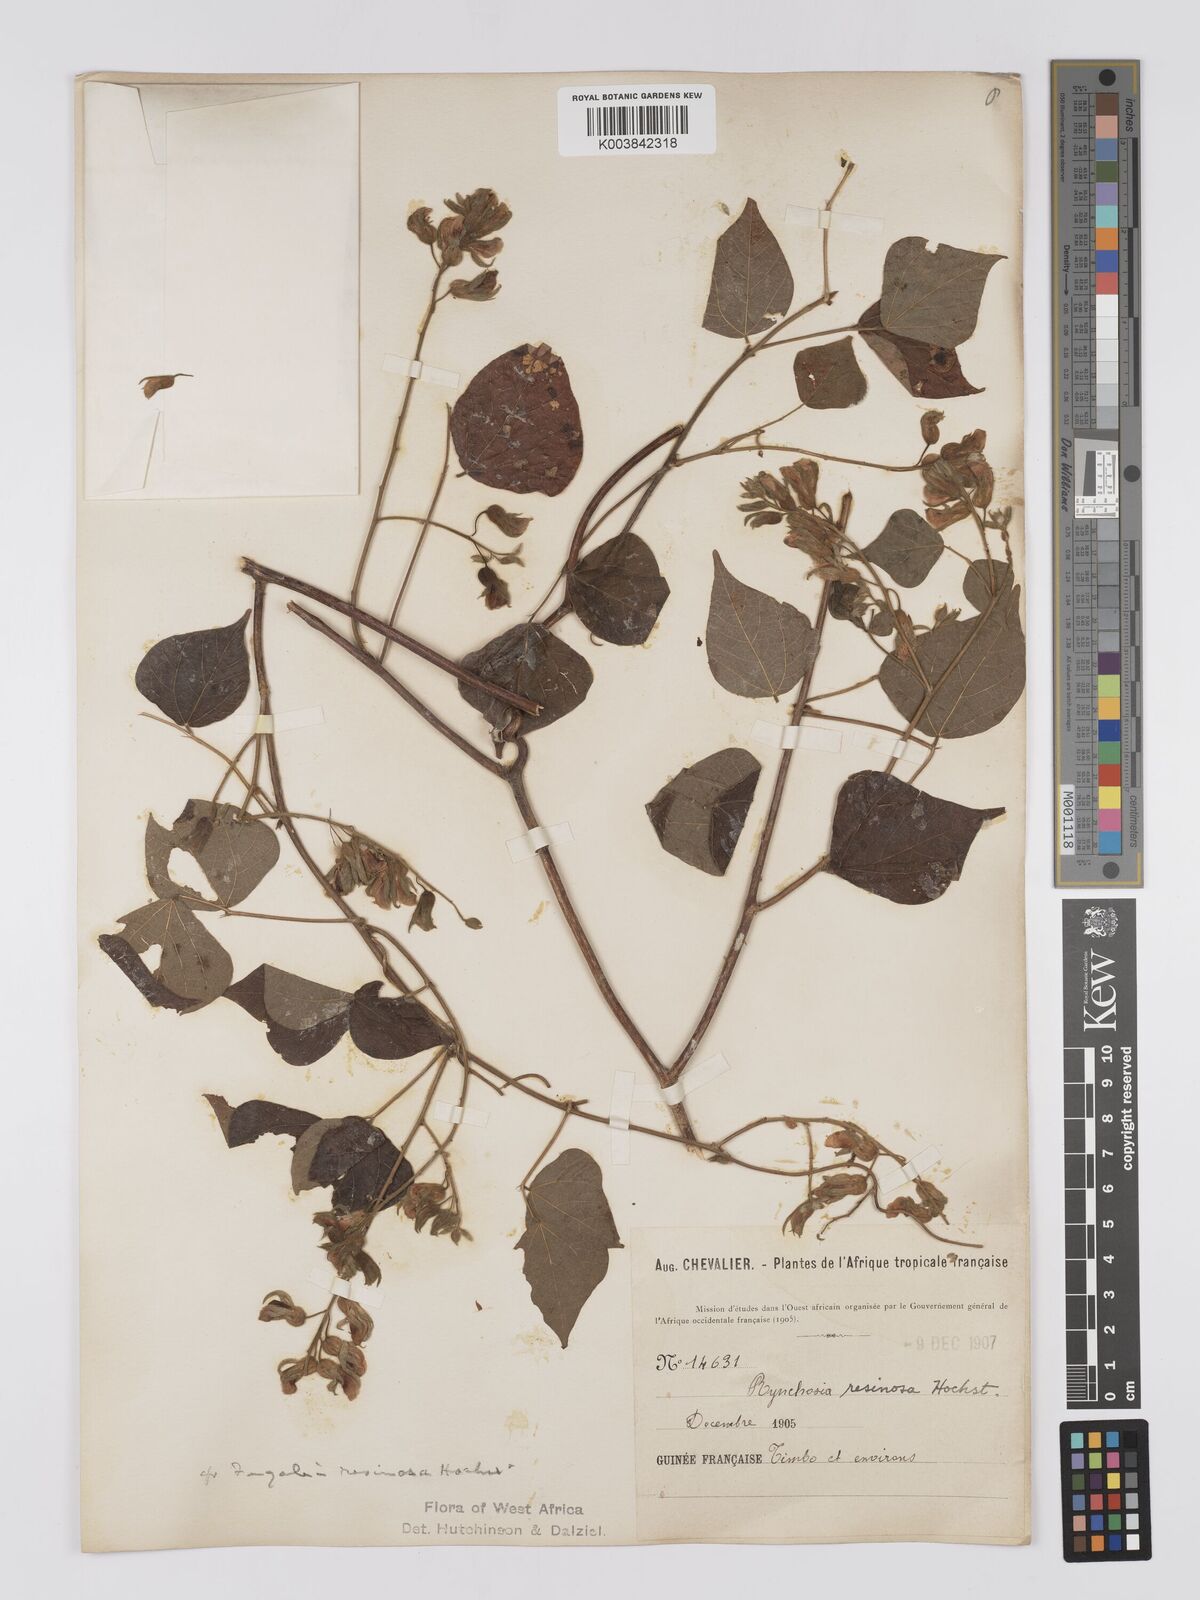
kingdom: Plantae
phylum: Tracheophyta
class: Magnoliopsida
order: Fabales
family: Fabaceae
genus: Rhynchosia
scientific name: Rhynchosia resinosa
